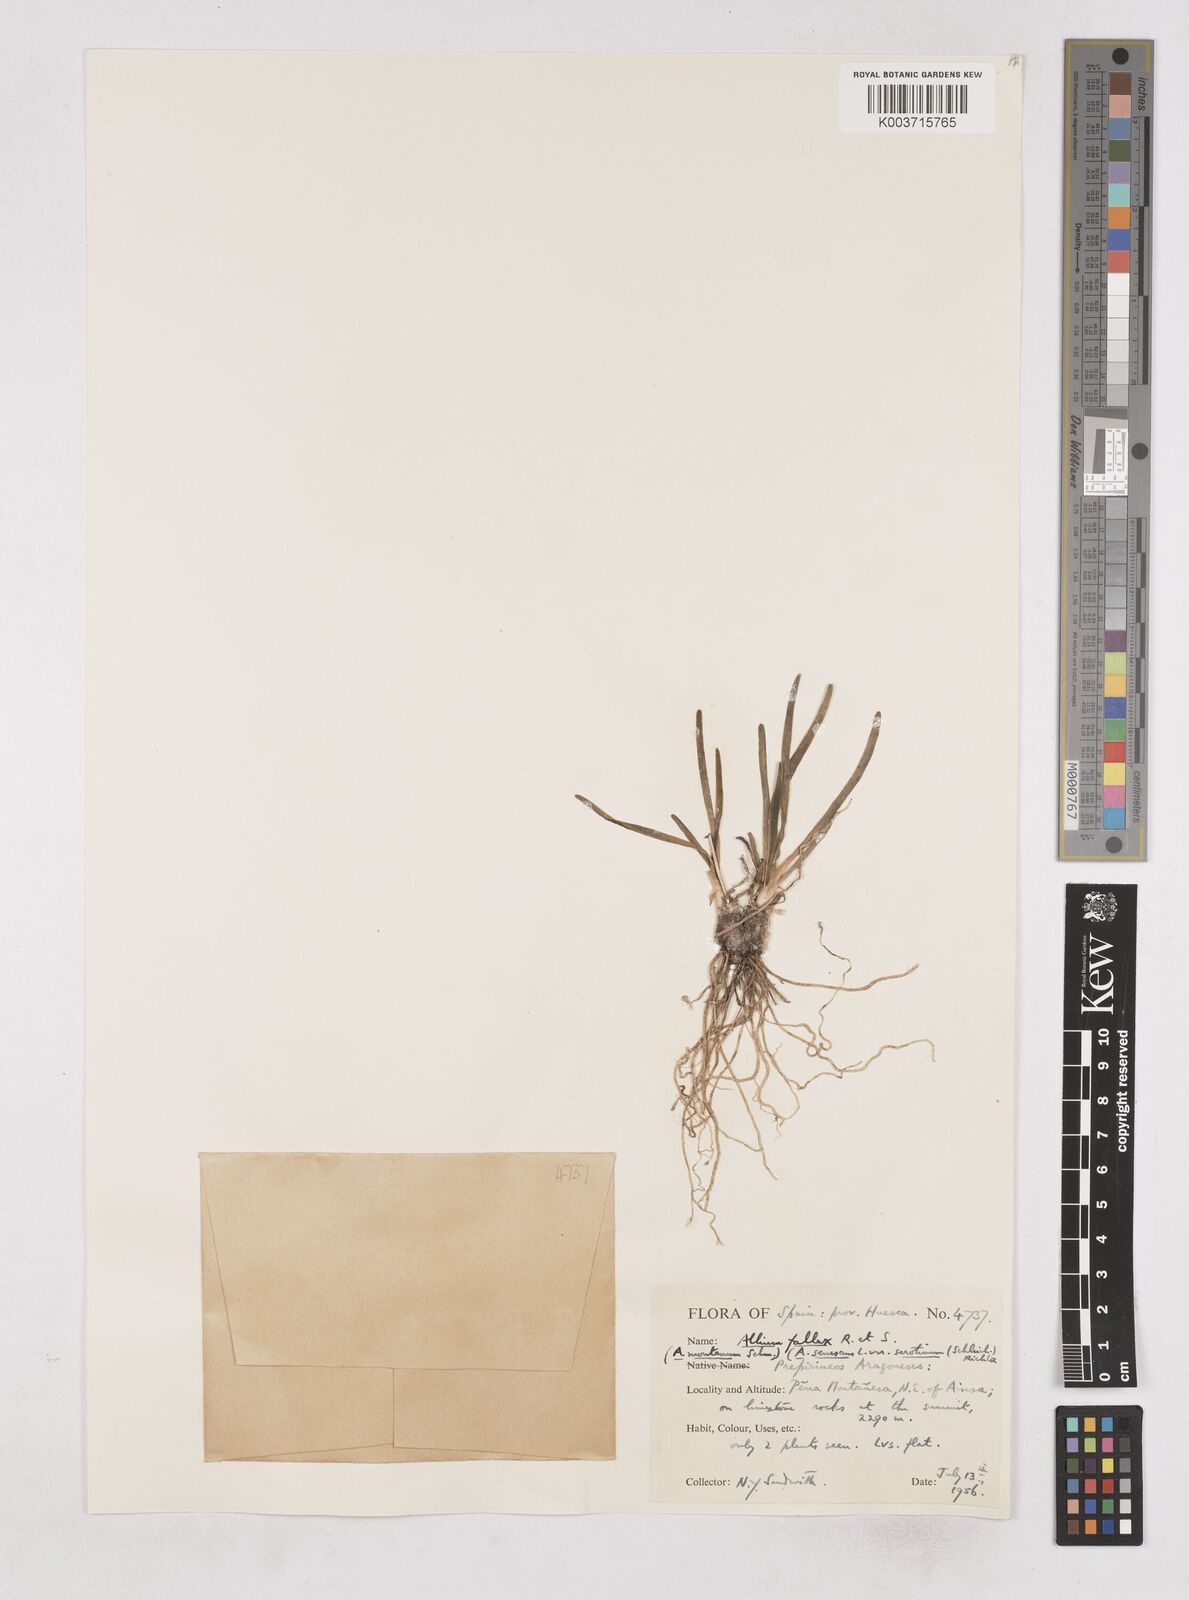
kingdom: Plantae
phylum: Tracheophyta
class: Liliopsida
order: Asparagales
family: Amaryllidaceae
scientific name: Amaryllidaceae
